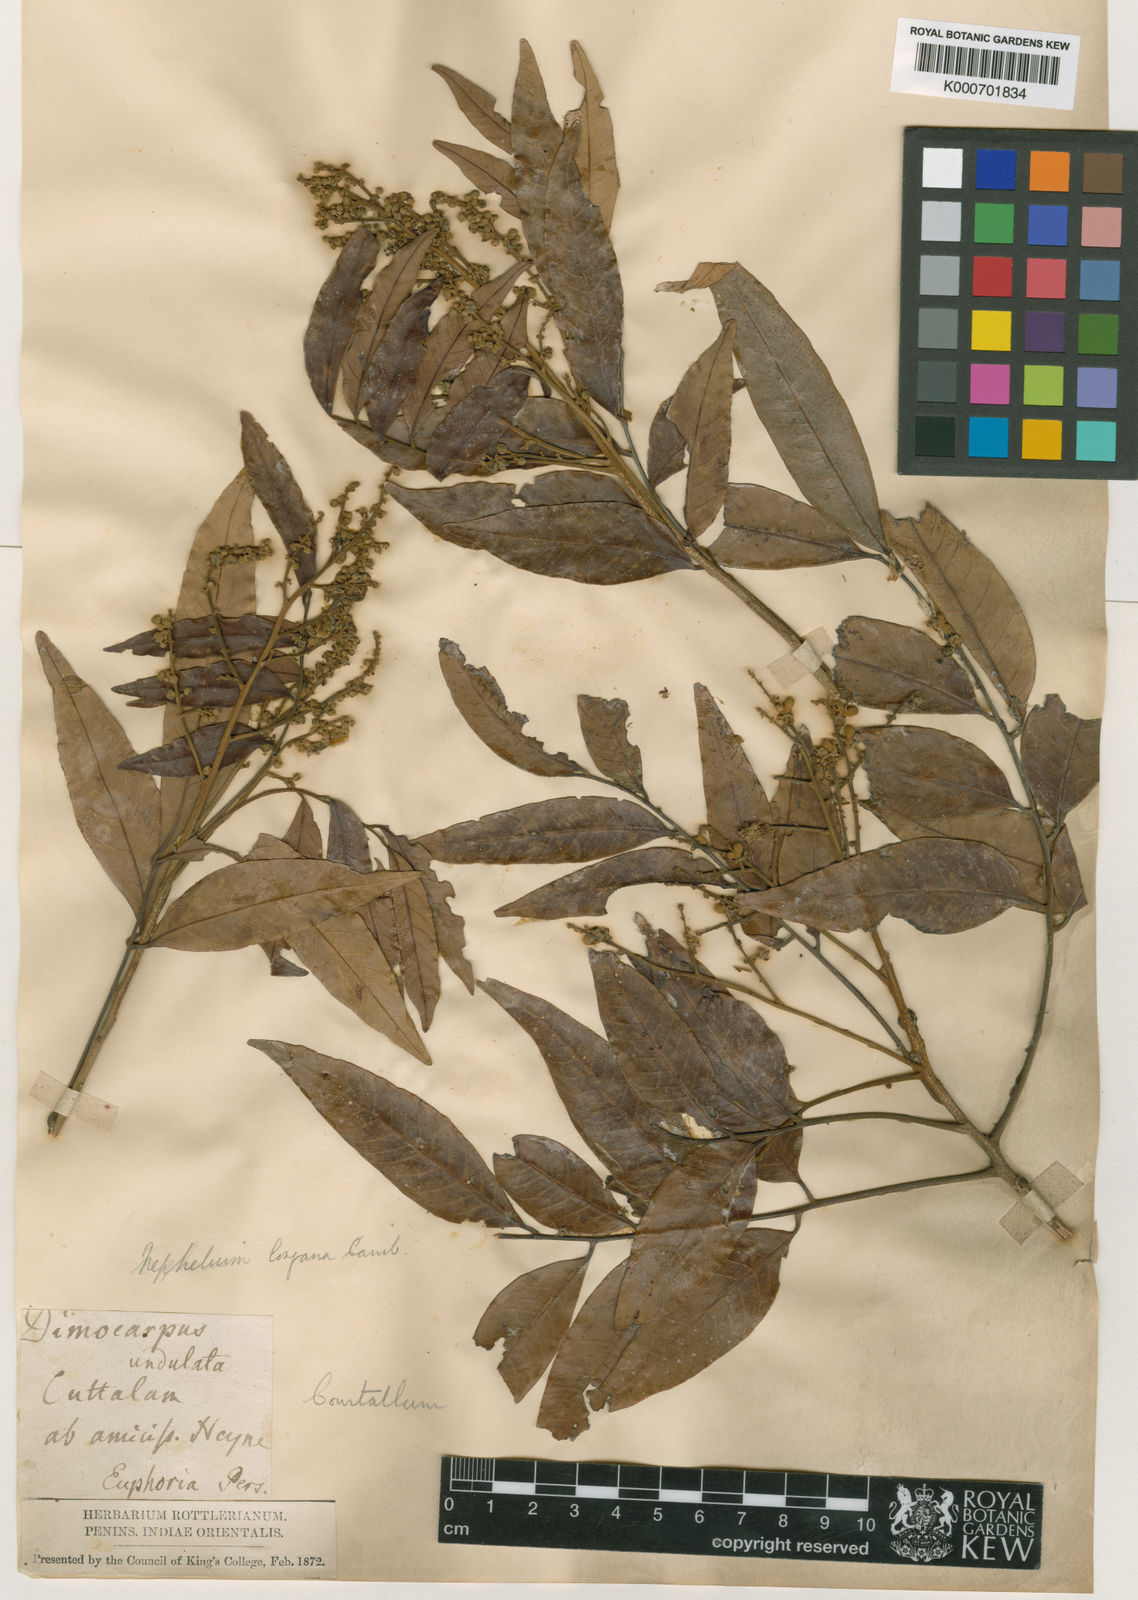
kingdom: Plantae
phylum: Tracheophyta
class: Magnoliopsida
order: Sapindales
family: Sapindaceae
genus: Dimocarpus
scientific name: Dimocarpus longan
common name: Longan
